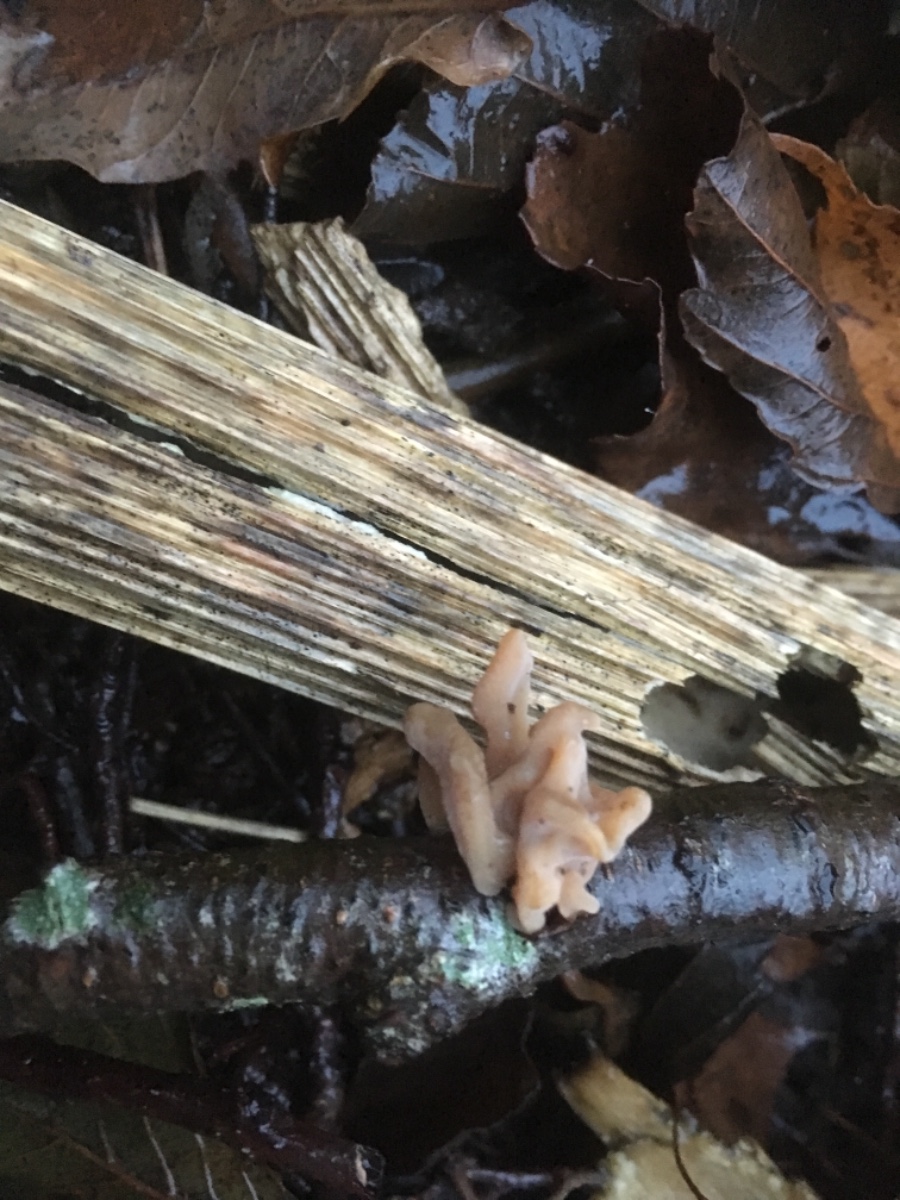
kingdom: Fungi
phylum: Basidiomycota
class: Agaricomycetes
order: Agaricales
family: Typhulaceae
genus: Typhula
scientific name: Typhula contorta
